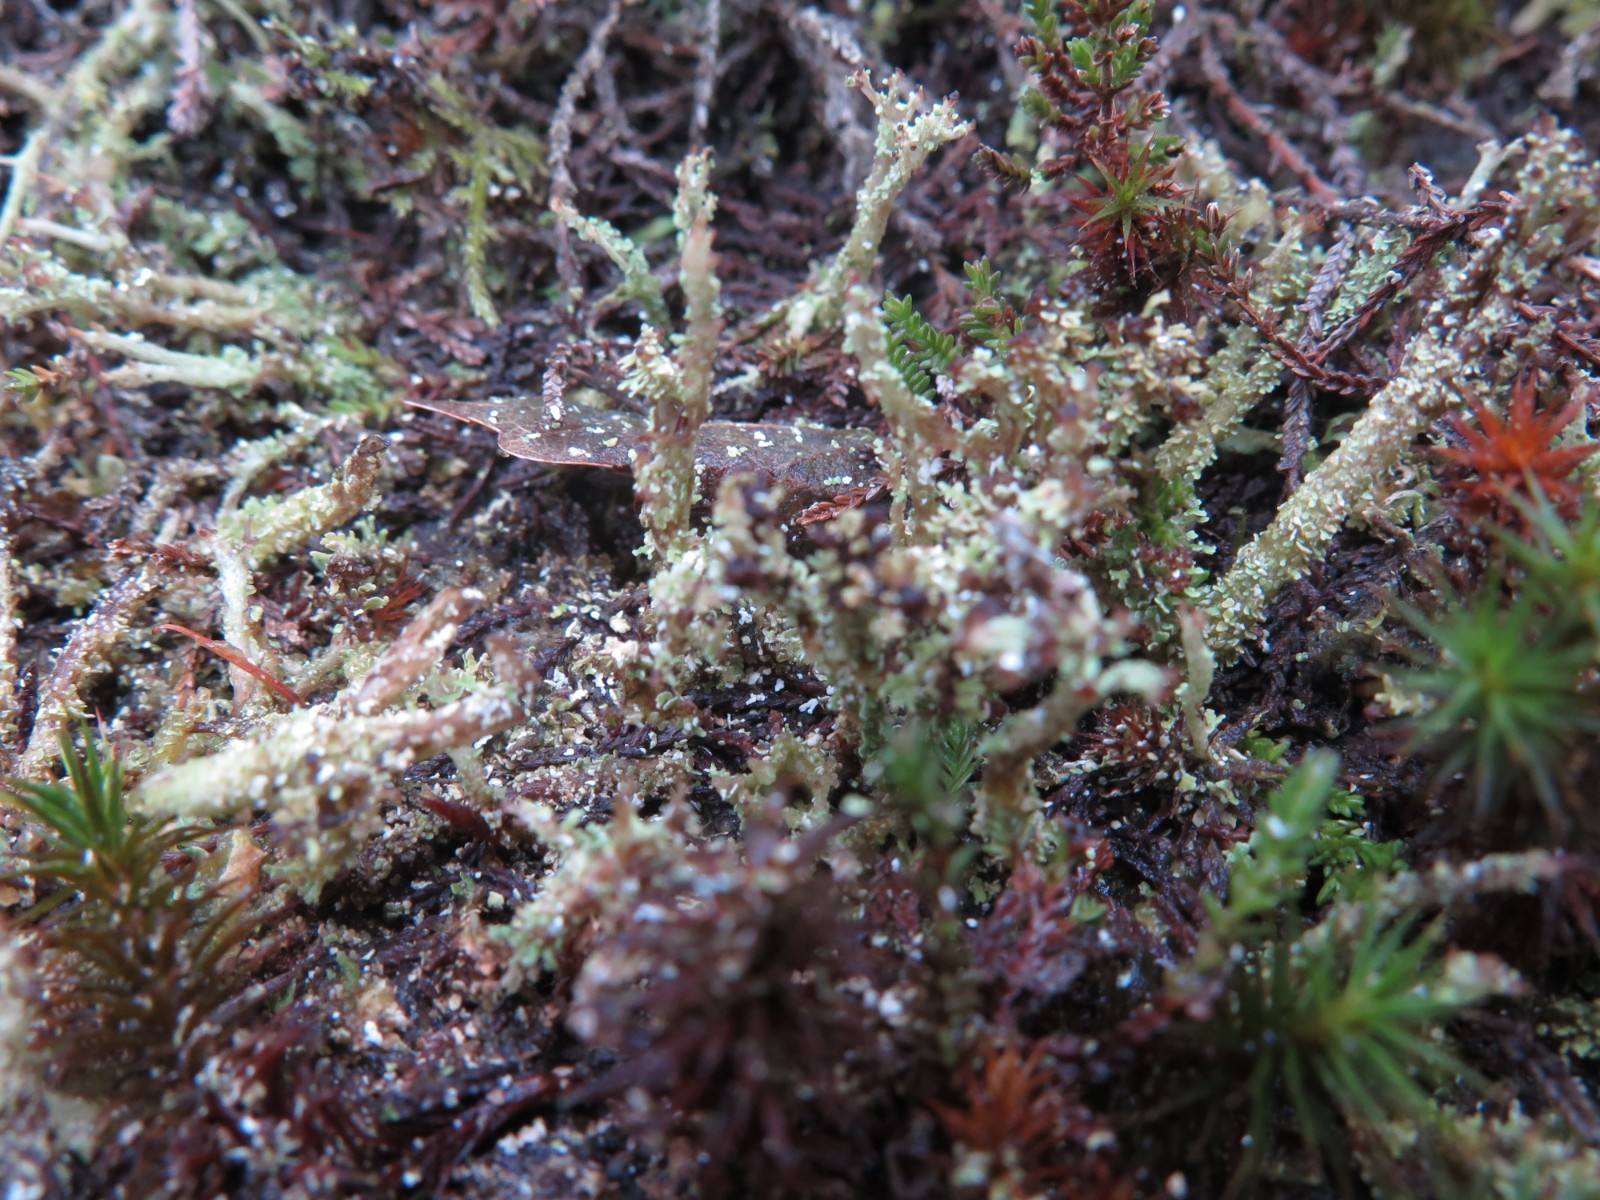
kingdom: Fungi
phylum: Ascomycota
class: Lecanoromycetes
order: Lecanorales
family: Cladoniaceae
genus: Cladonia
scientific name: Cladonia ramulosa
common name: kliddet bægerlav
